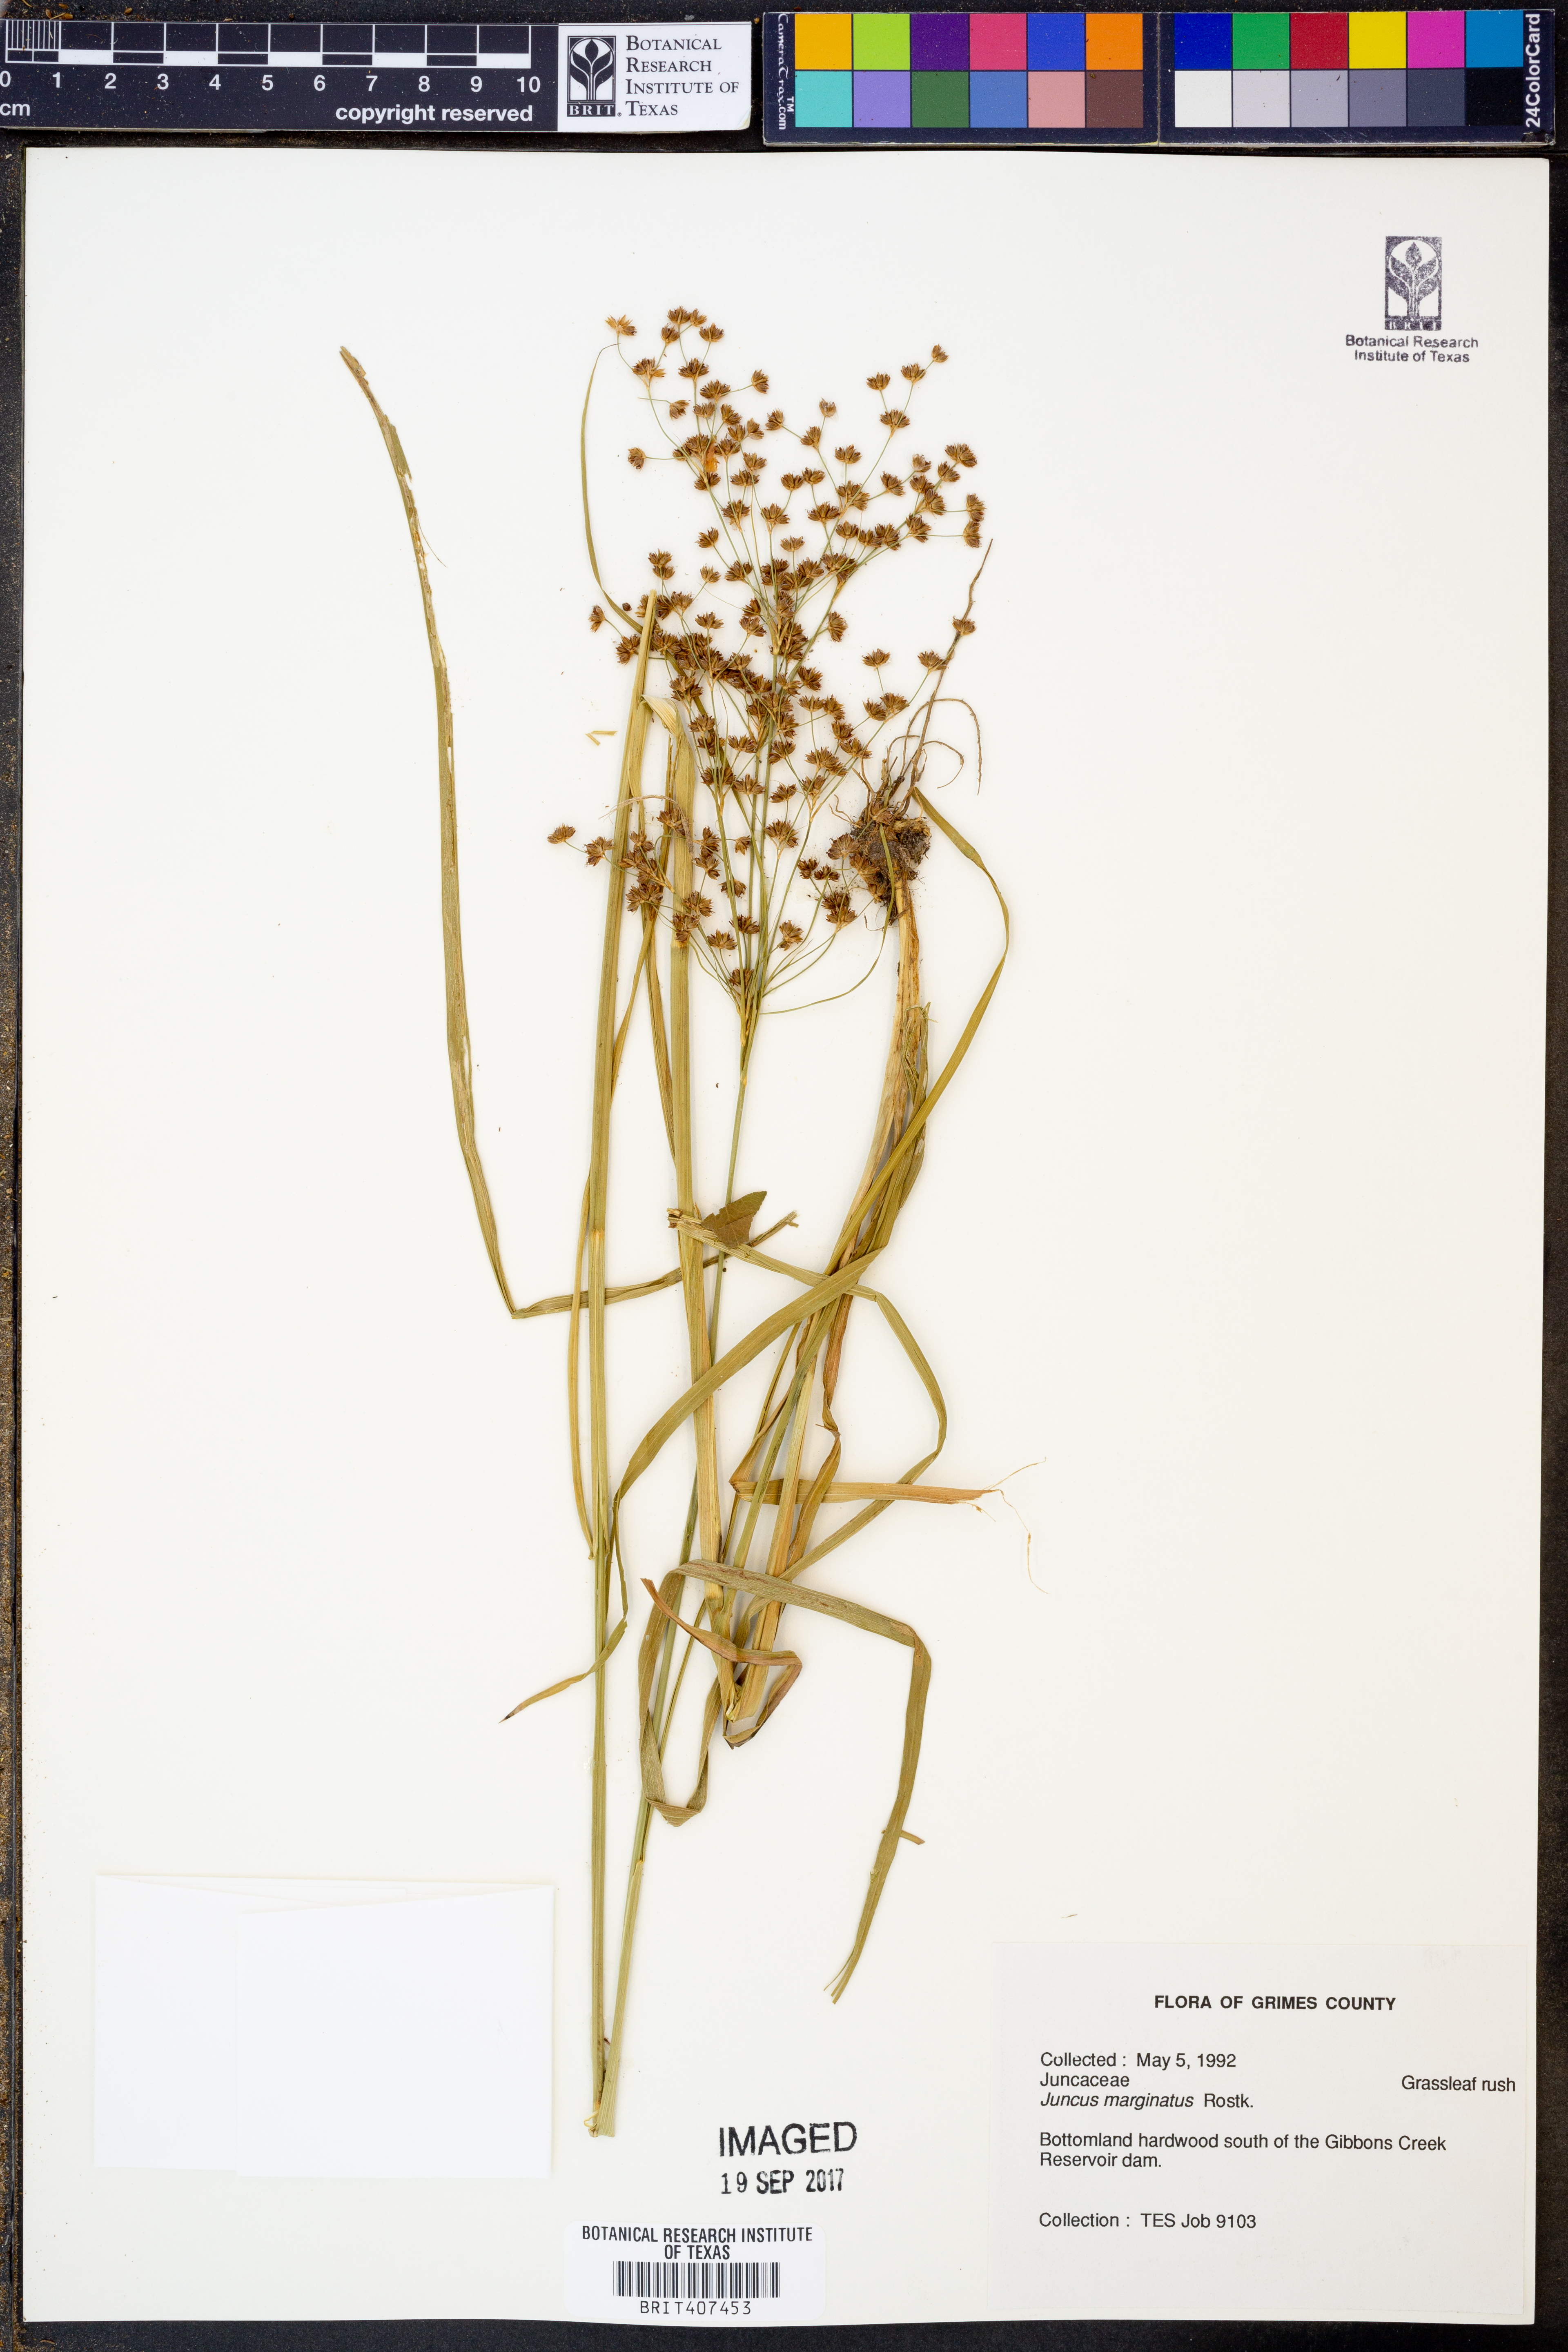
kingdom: Plantae
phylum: Tracheophyta
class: Liliopsida
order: Poales
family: Juncaceae
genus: Juncus
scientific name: Juncus marginatus
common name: Grass-leaf rush
